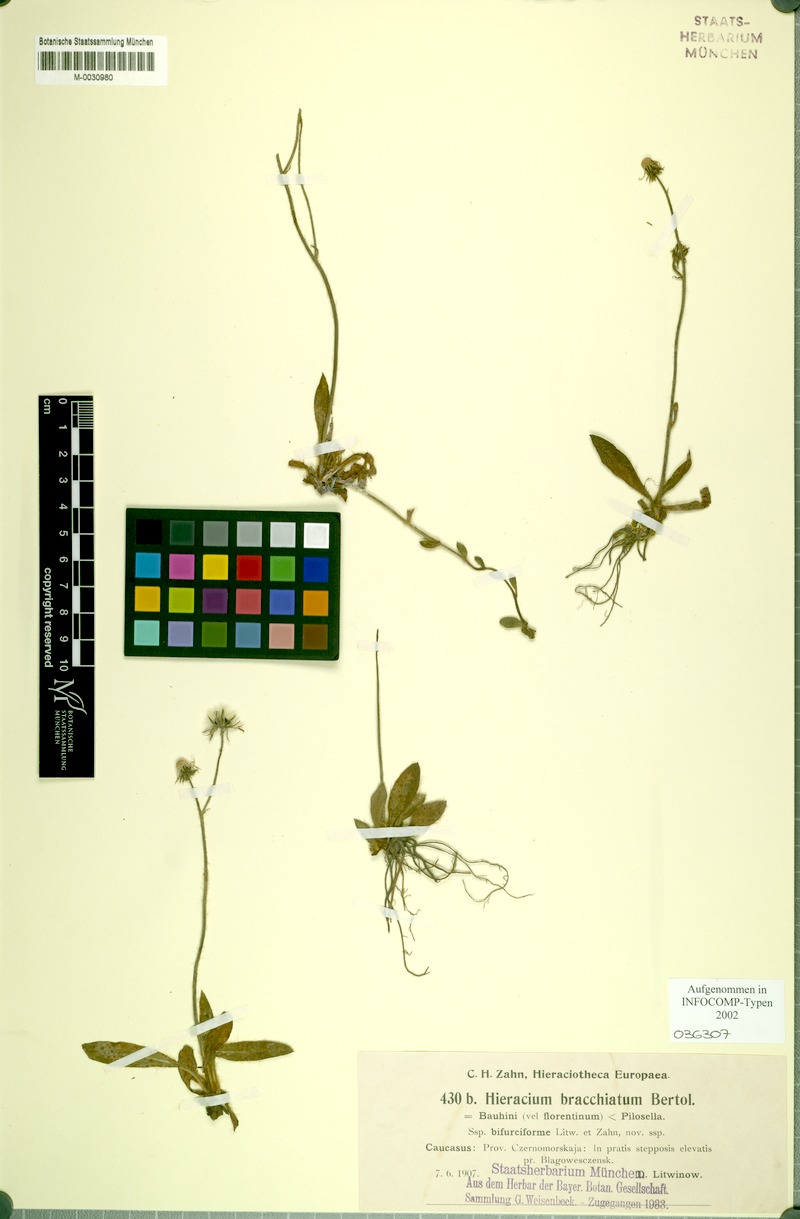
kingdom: Plantae
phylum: Tracheophyta
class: Magnoliopsida
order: Asterales
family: Asteraceae
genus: Pilosella
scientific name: Pilosella acutifolia
